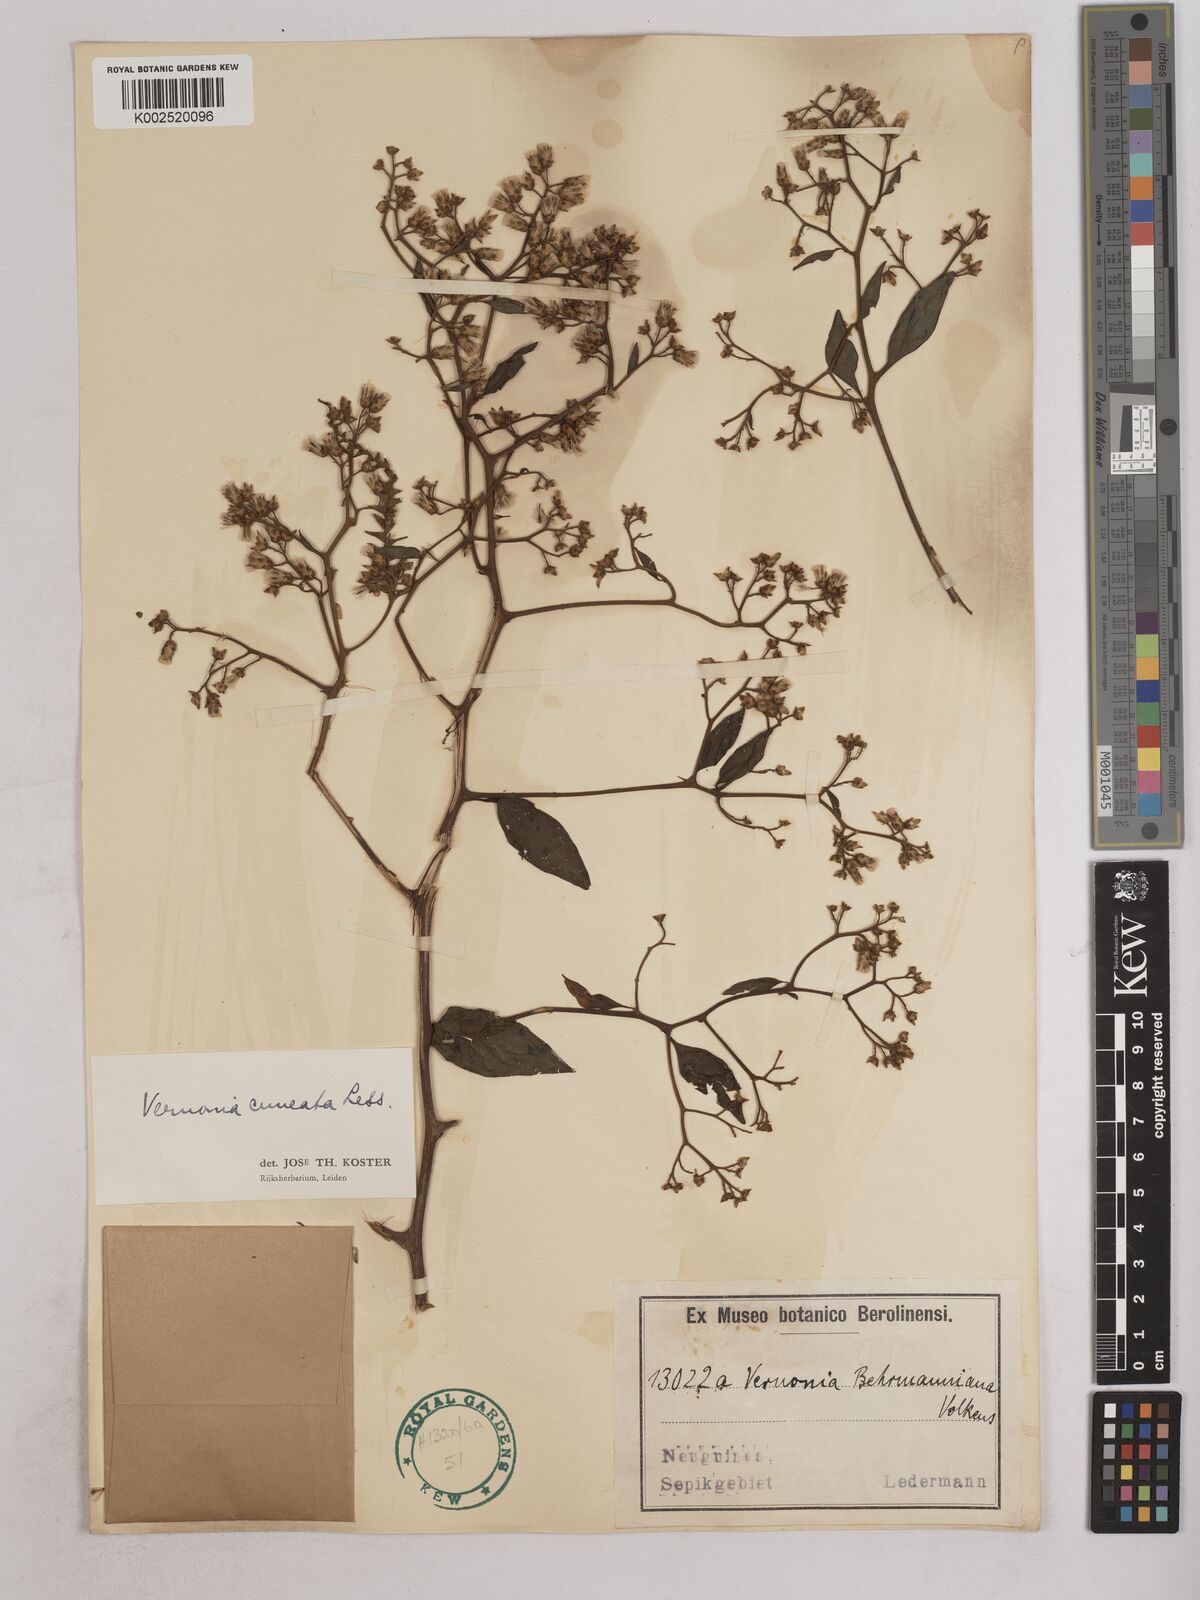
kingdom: Plantae
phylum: Tracheophyta
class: Magnoliopsida
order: Asterales
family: Asteraceae
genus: Decaneuropsis
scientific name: Decaneuropsis obovata
